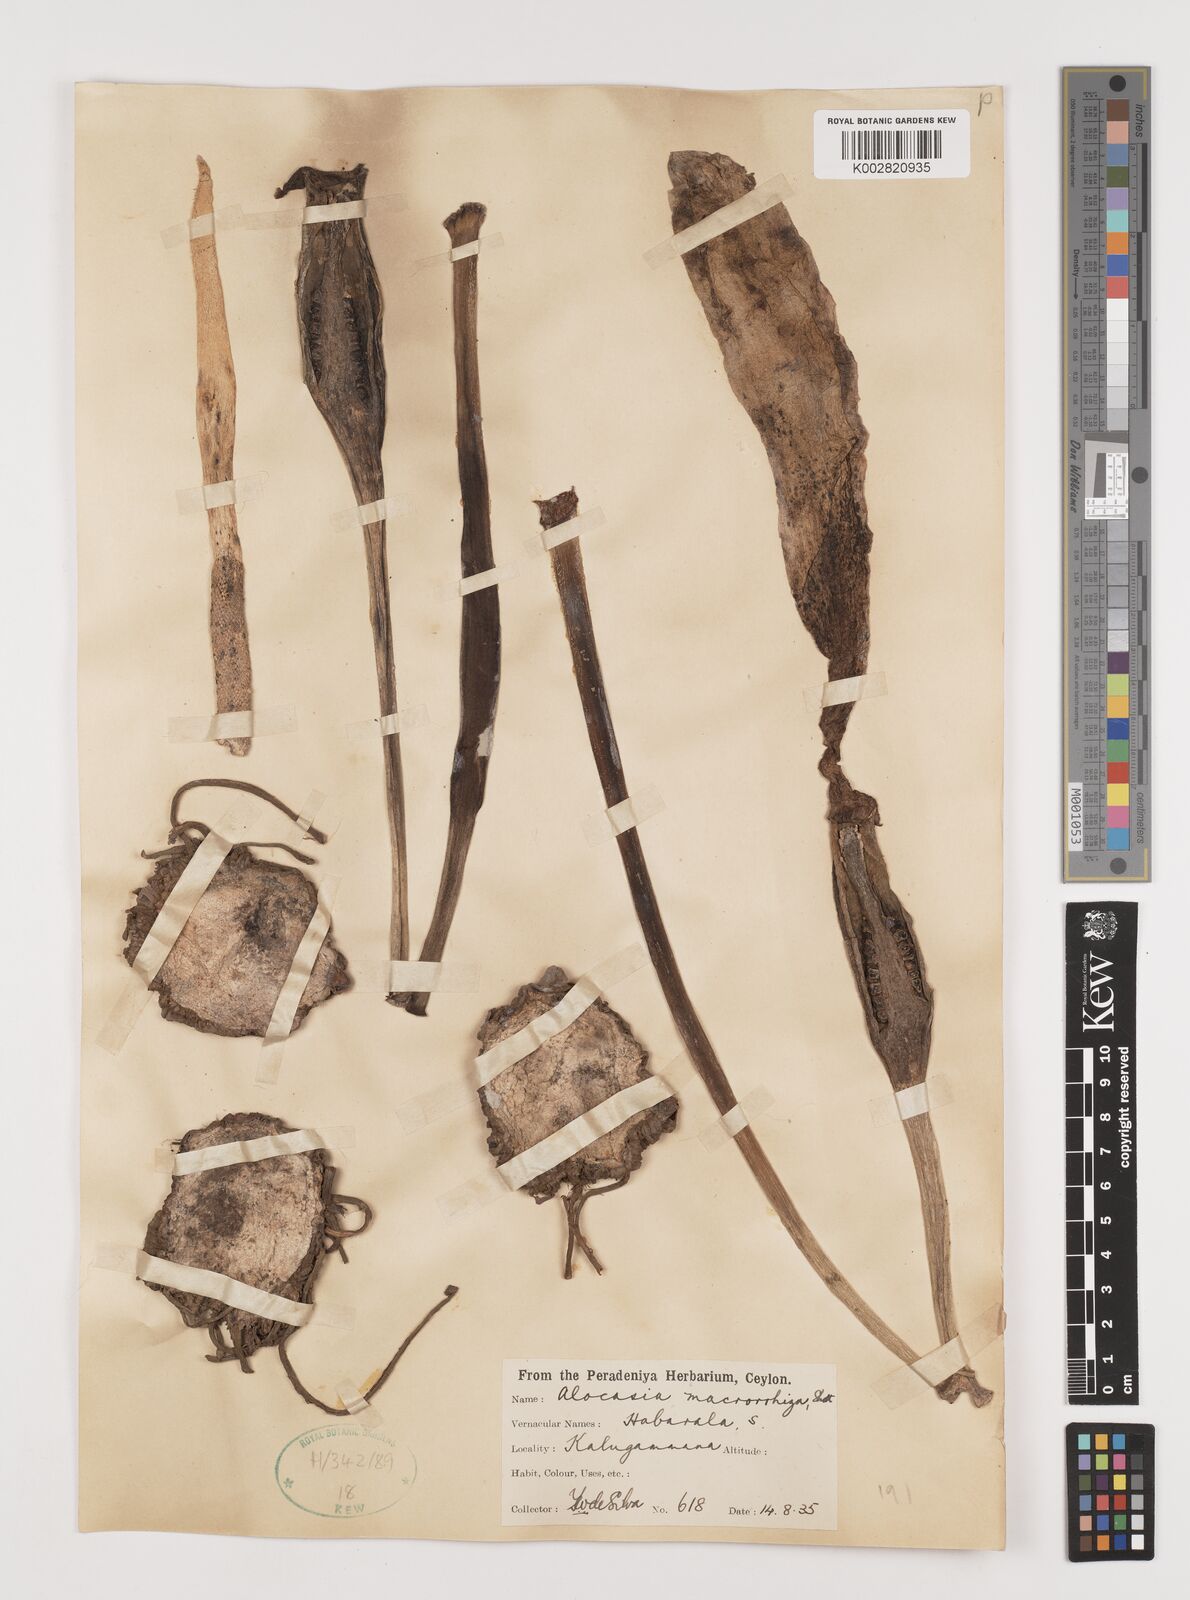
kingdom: Plantae
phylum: Tracheophyta
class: Liliopsida
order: Alismatales
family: Araceae
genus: Alocasia
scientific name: Alocasia macrorrhizos
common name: Giant taro
